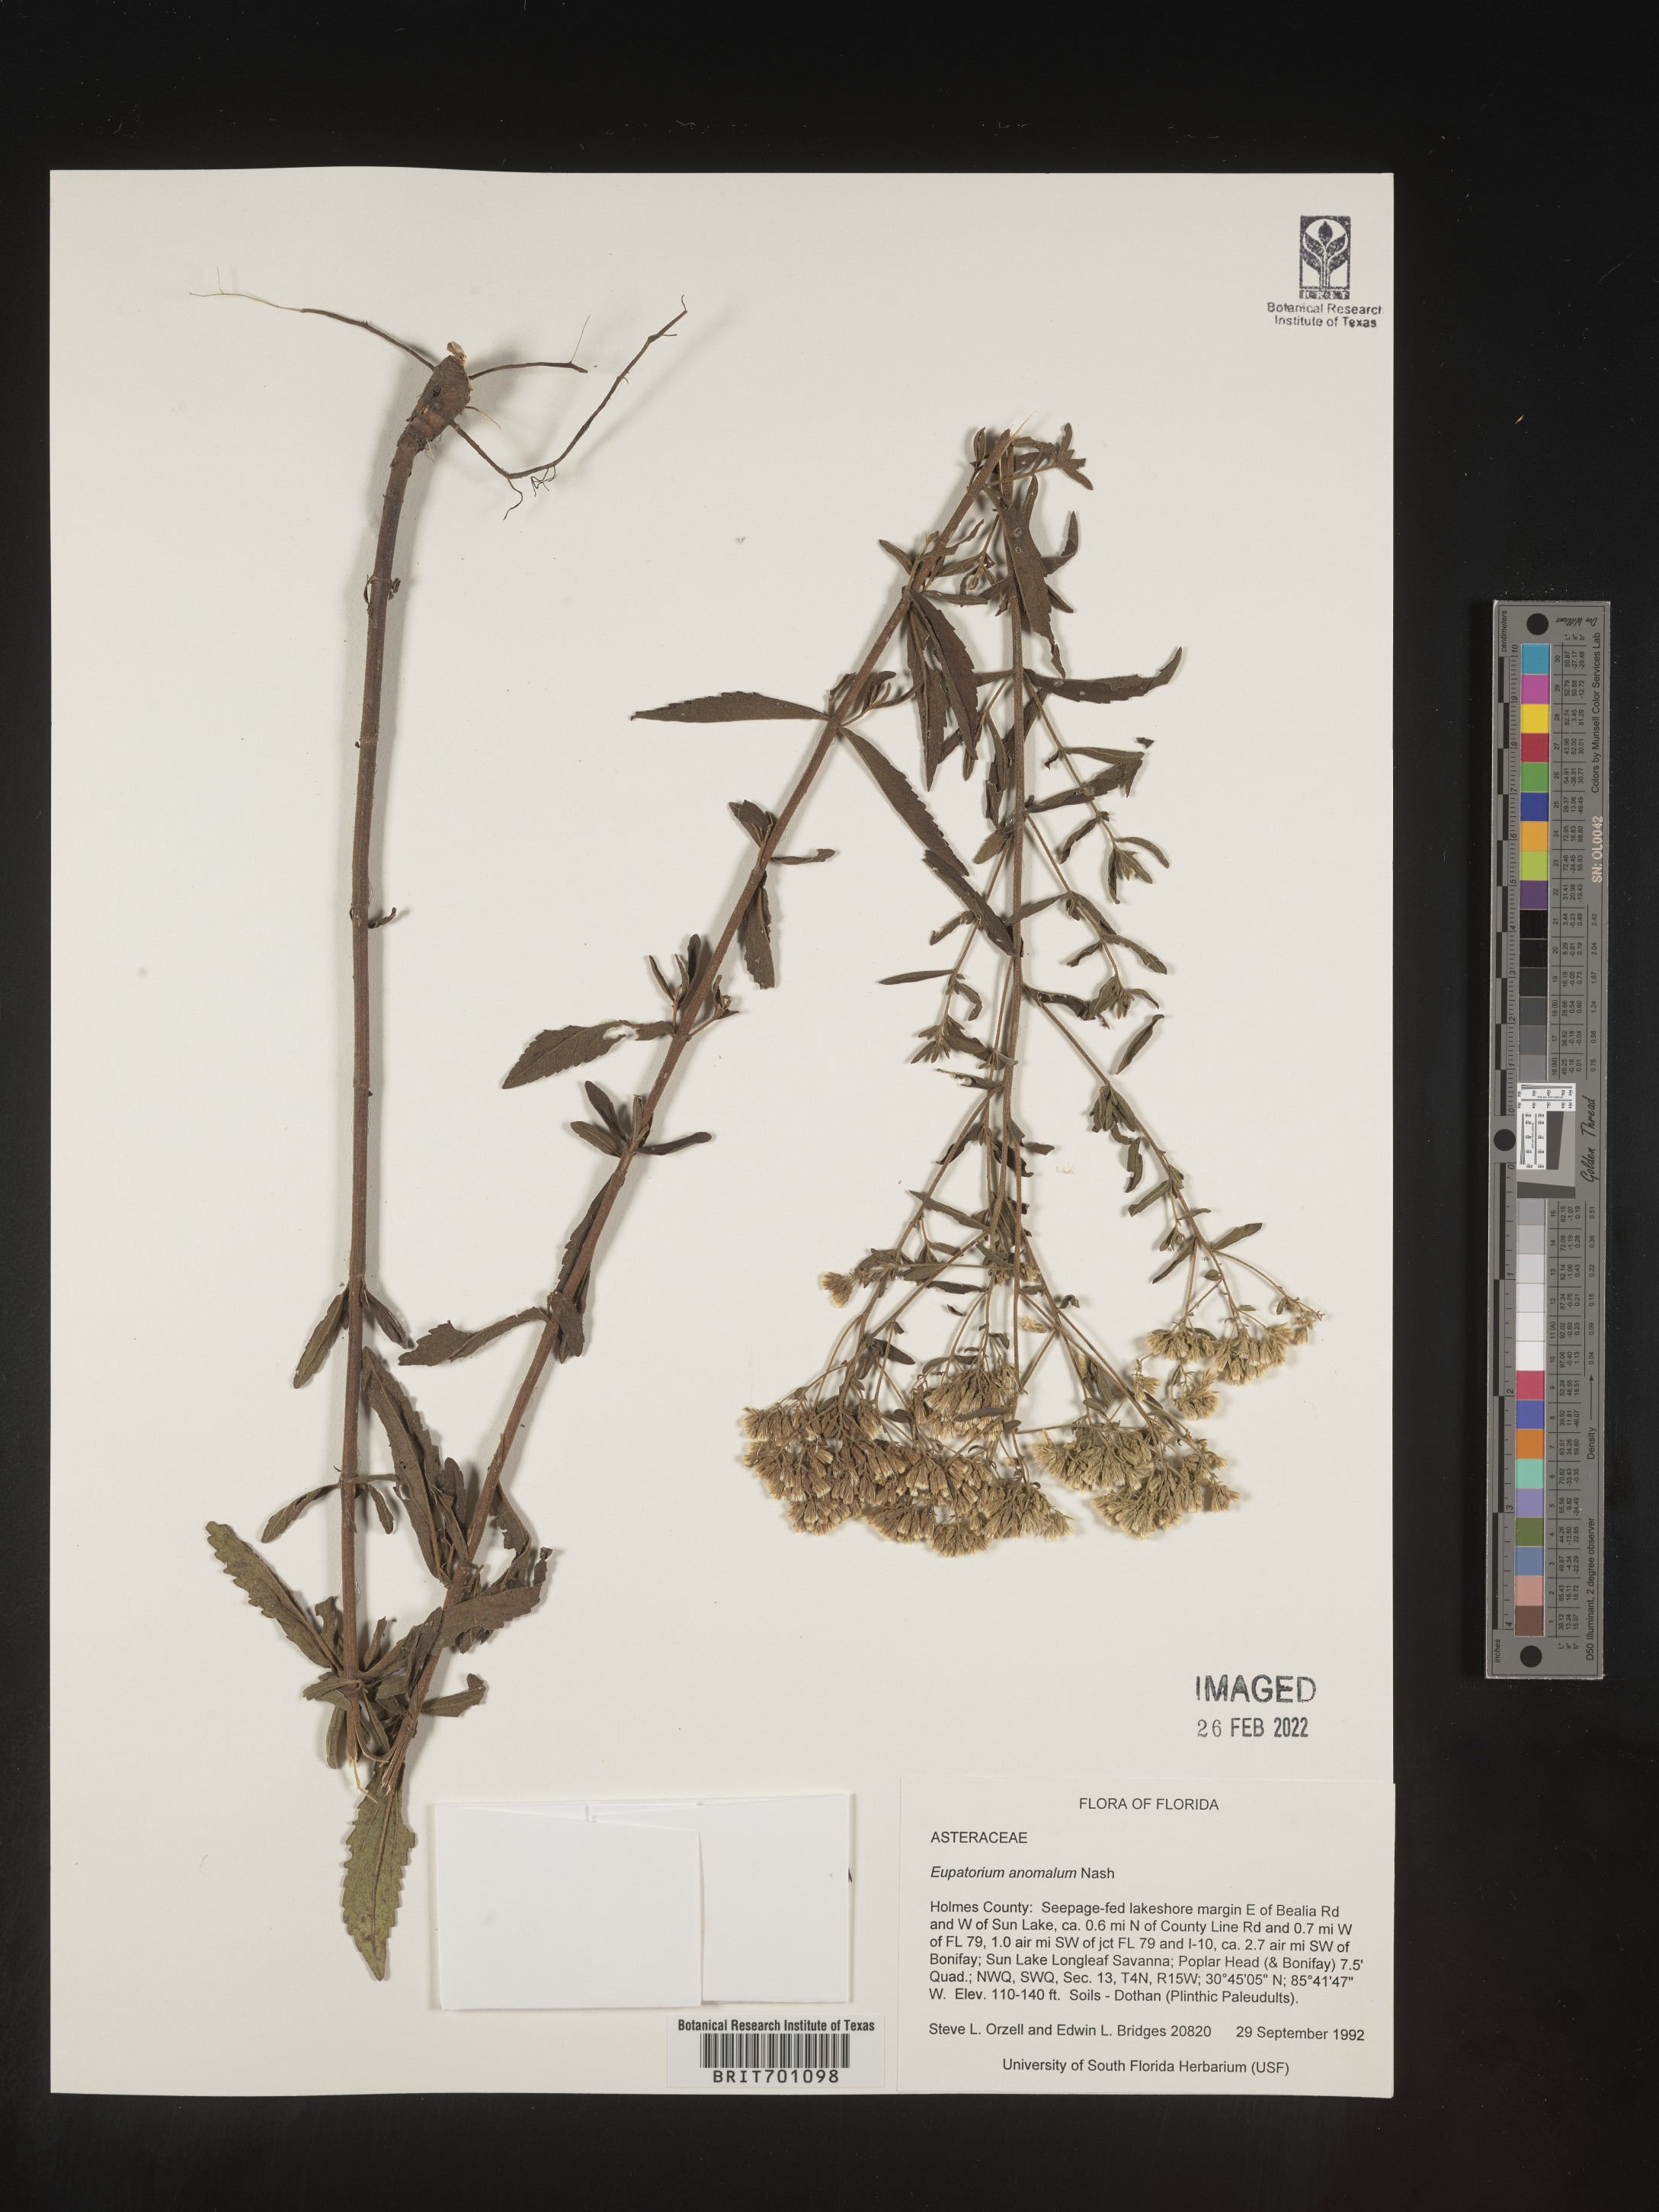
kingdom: Plantae
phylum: Tracheophyta
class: Magnoliopsida
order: Asterales
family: Asteraceae
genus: Eupatorium
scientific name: Eupatorium anomalum
